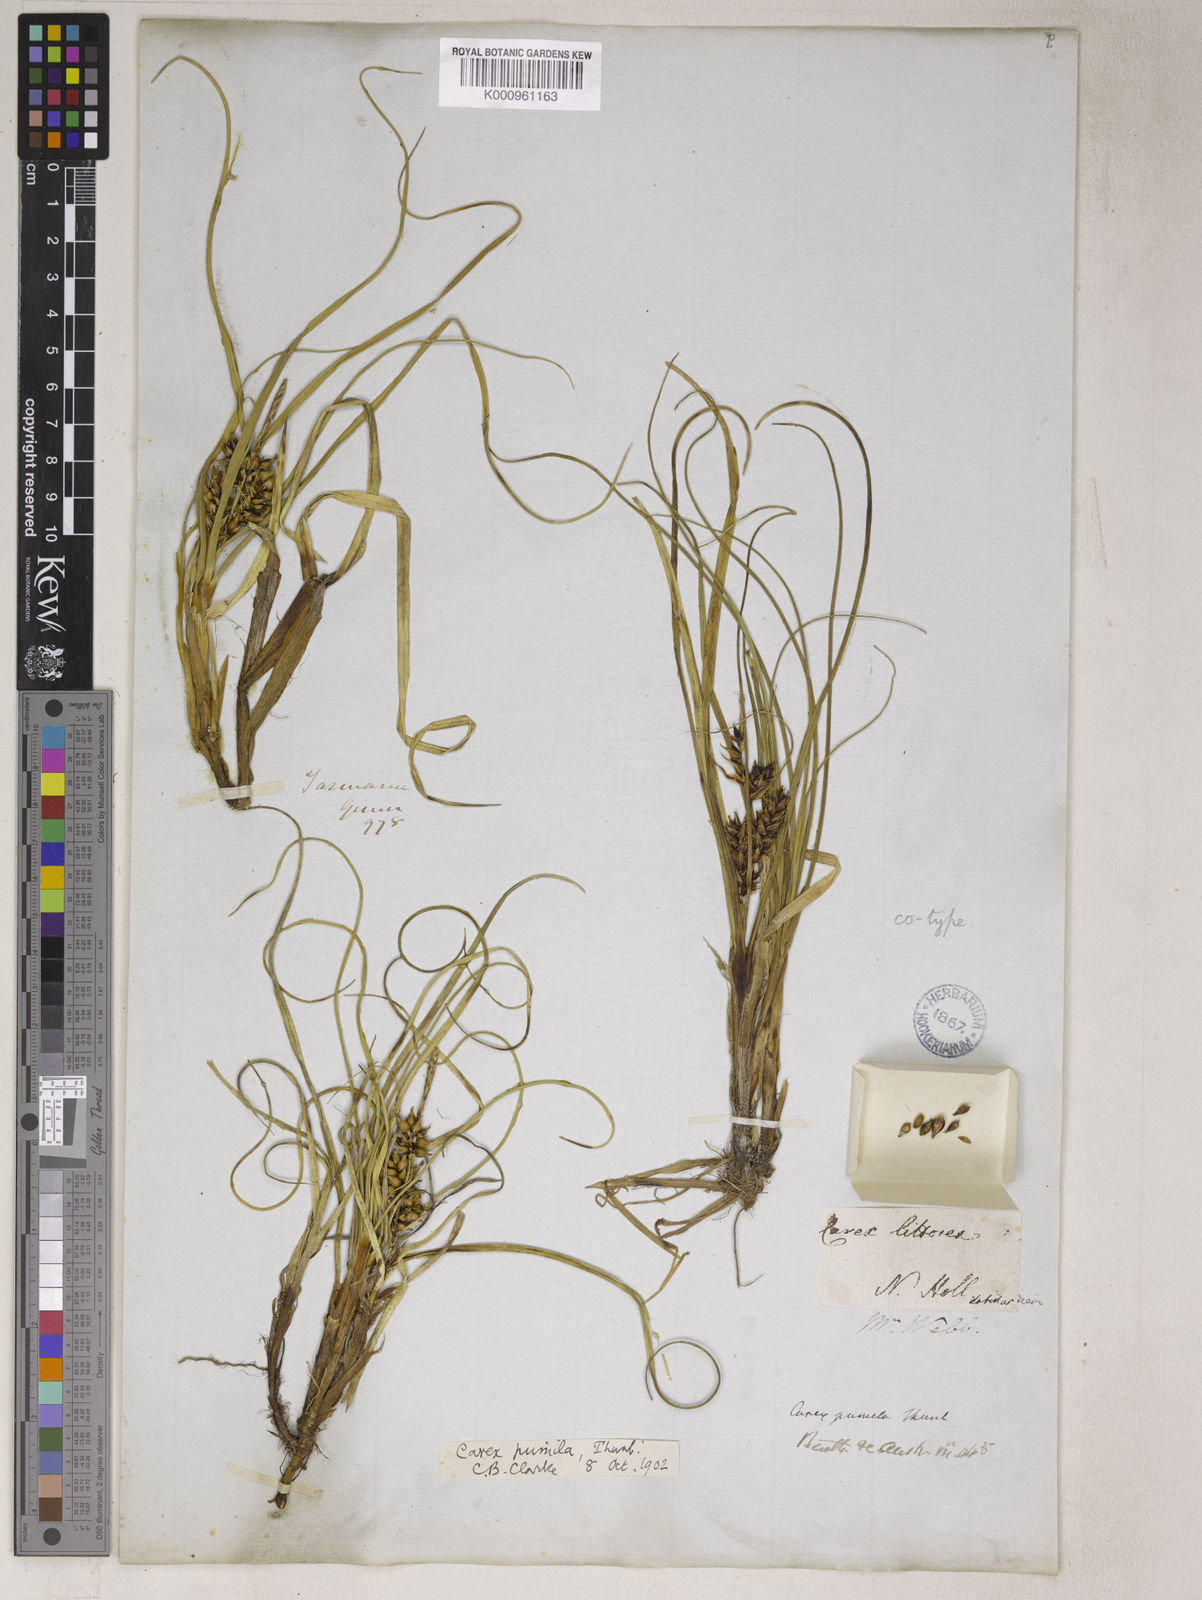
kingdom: Plantae
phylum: Tracheophyta
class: Liliopsida
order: Poales
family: Cyperaceae
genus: Carex
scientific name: Carex pumila
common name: Dwarf sedge
